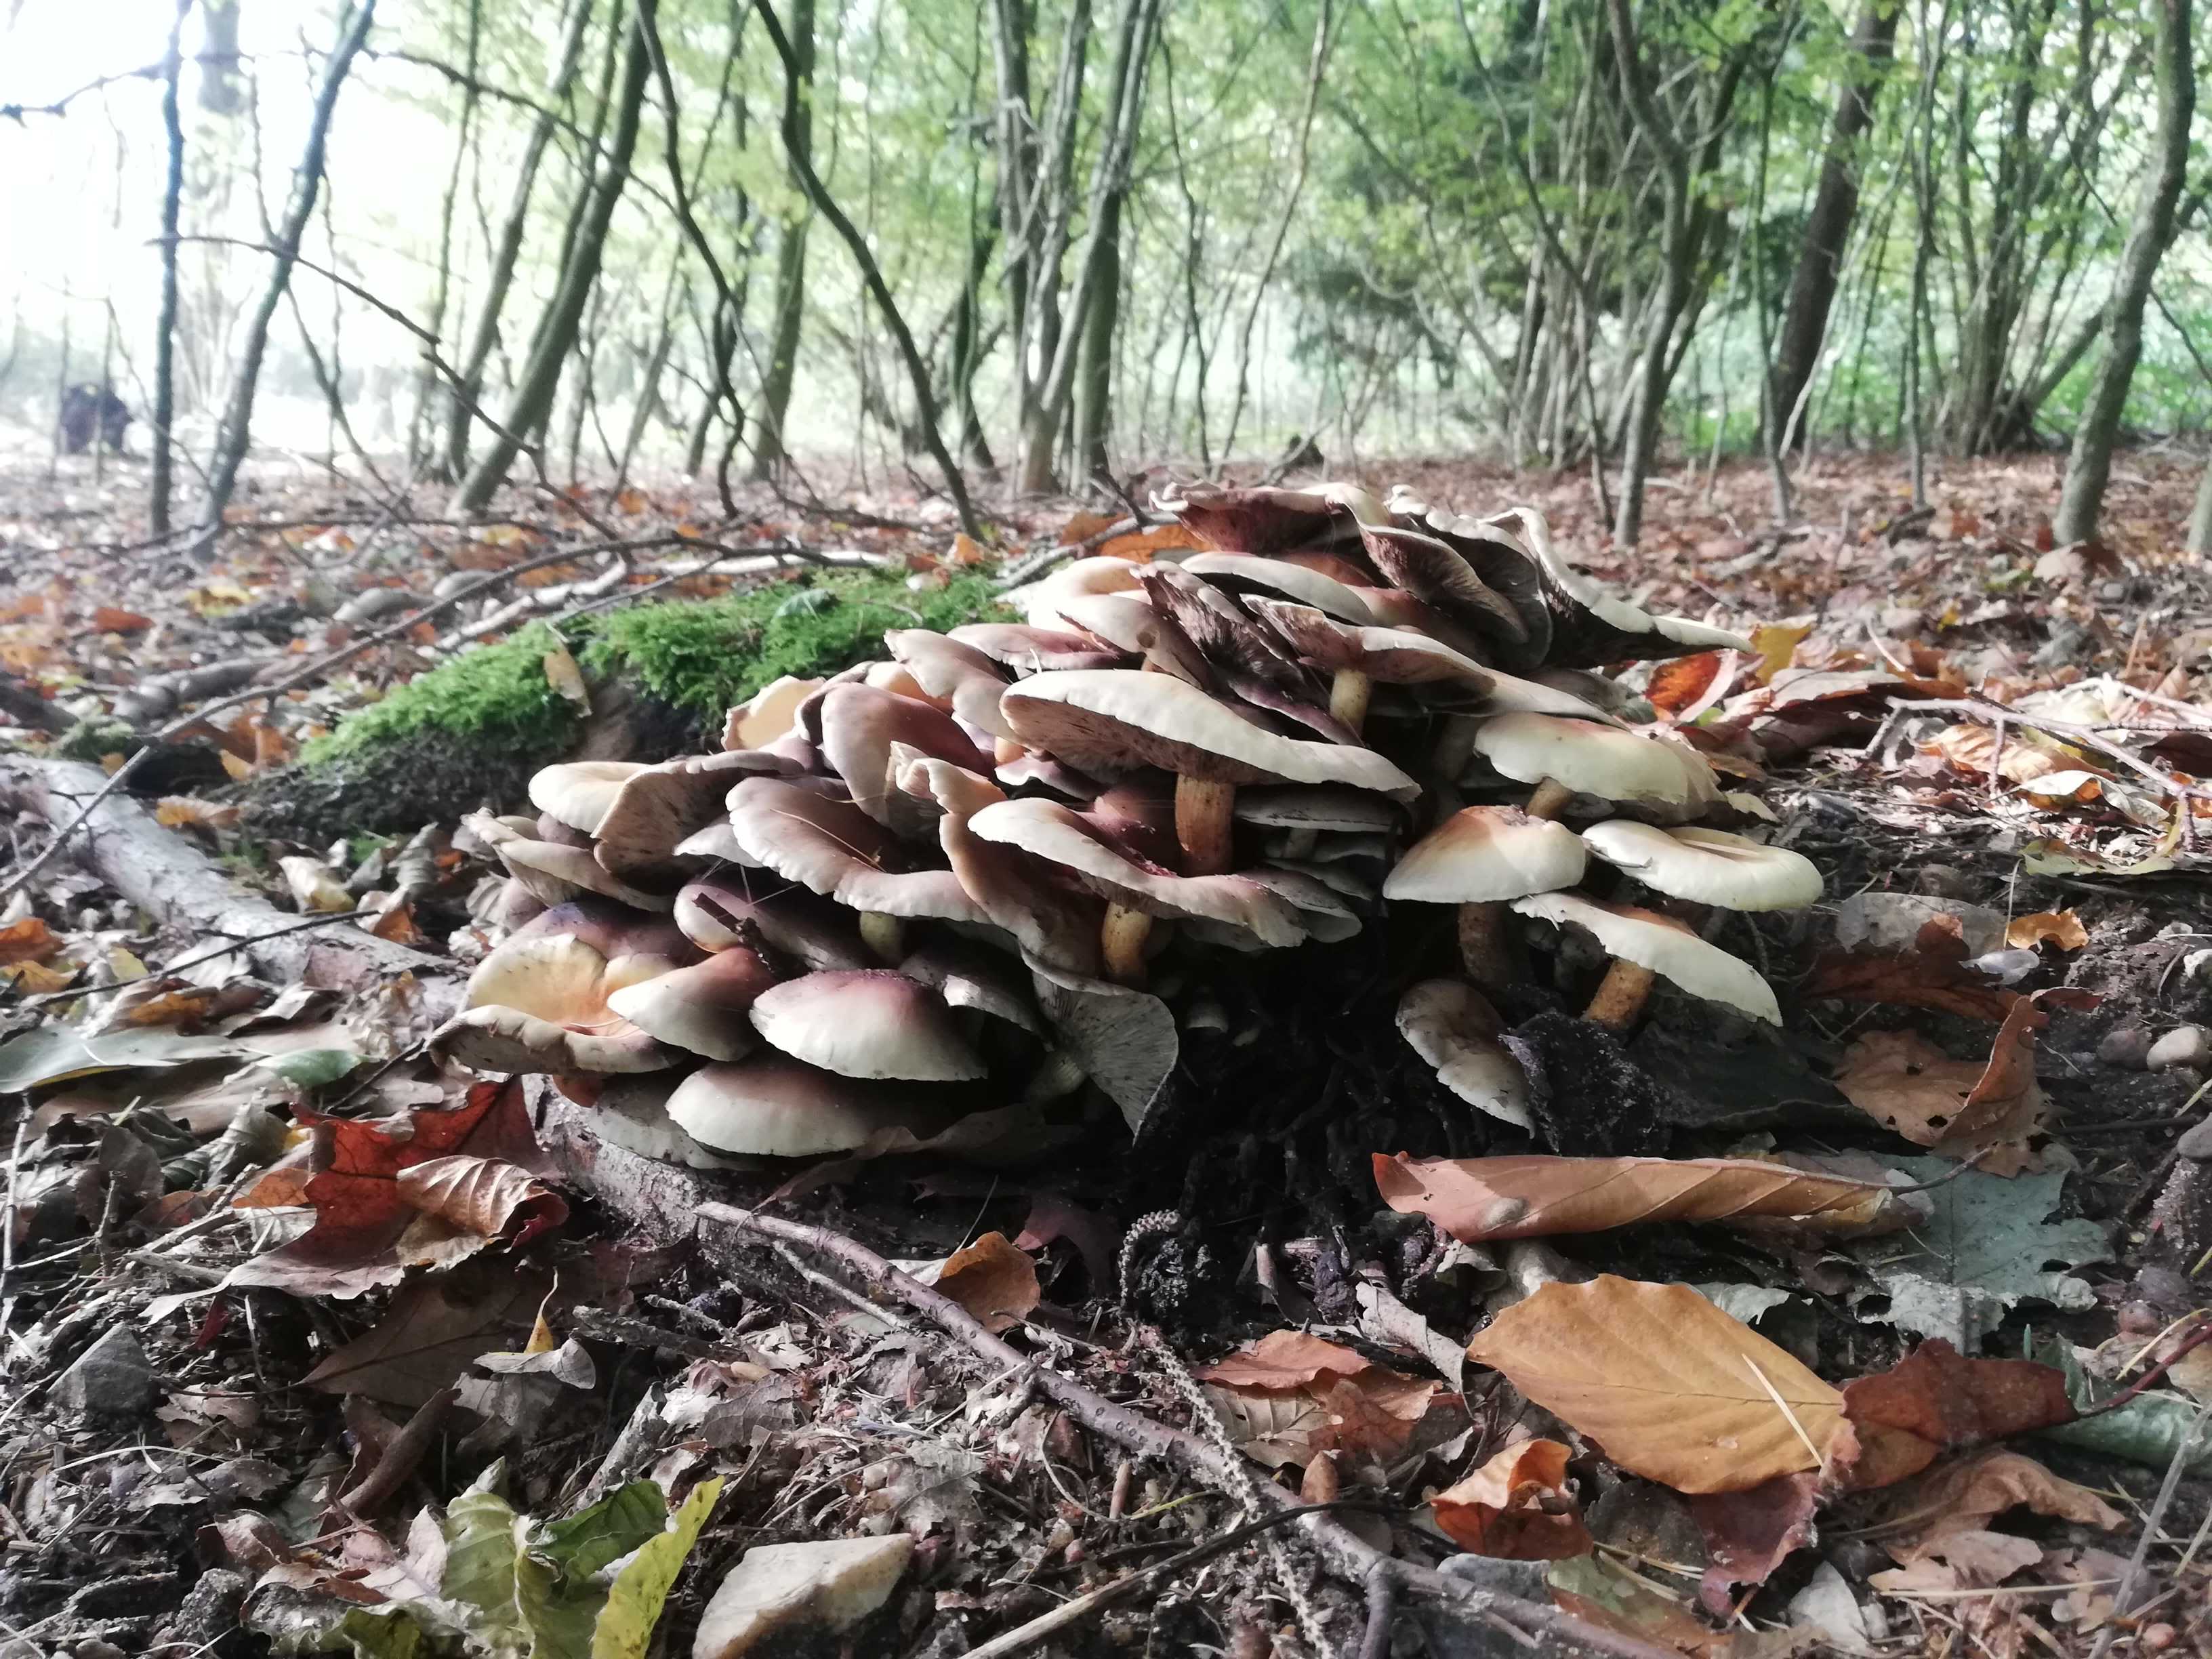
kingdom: Fungi
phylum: Basidiomycota
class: Agaricomycetes
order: Agaricales
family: Strophariaceae
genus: Hypholoma
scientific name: Hypholoma
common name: svovlhat
